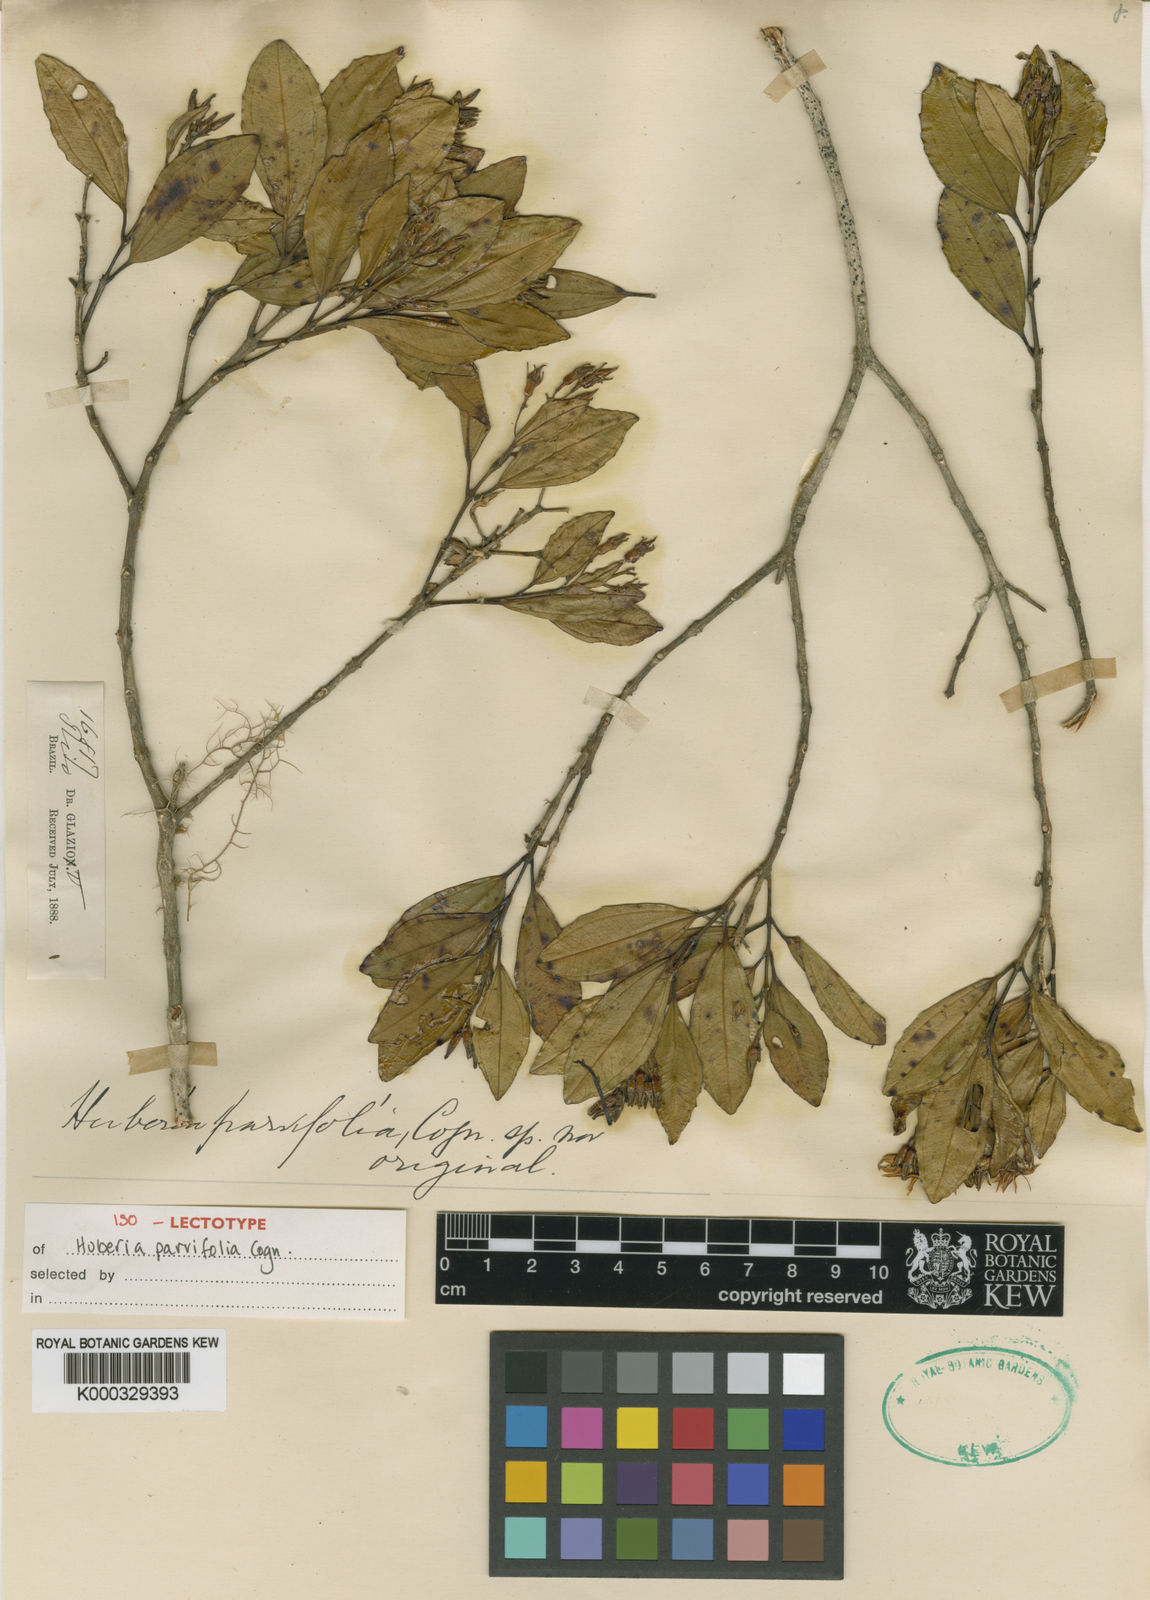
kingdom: Plantae
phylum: Tracheophyta
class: Magnoliopsida
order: Myrtales
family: Melastomataceae
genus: Huberia
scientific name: Huberia parvifolia
